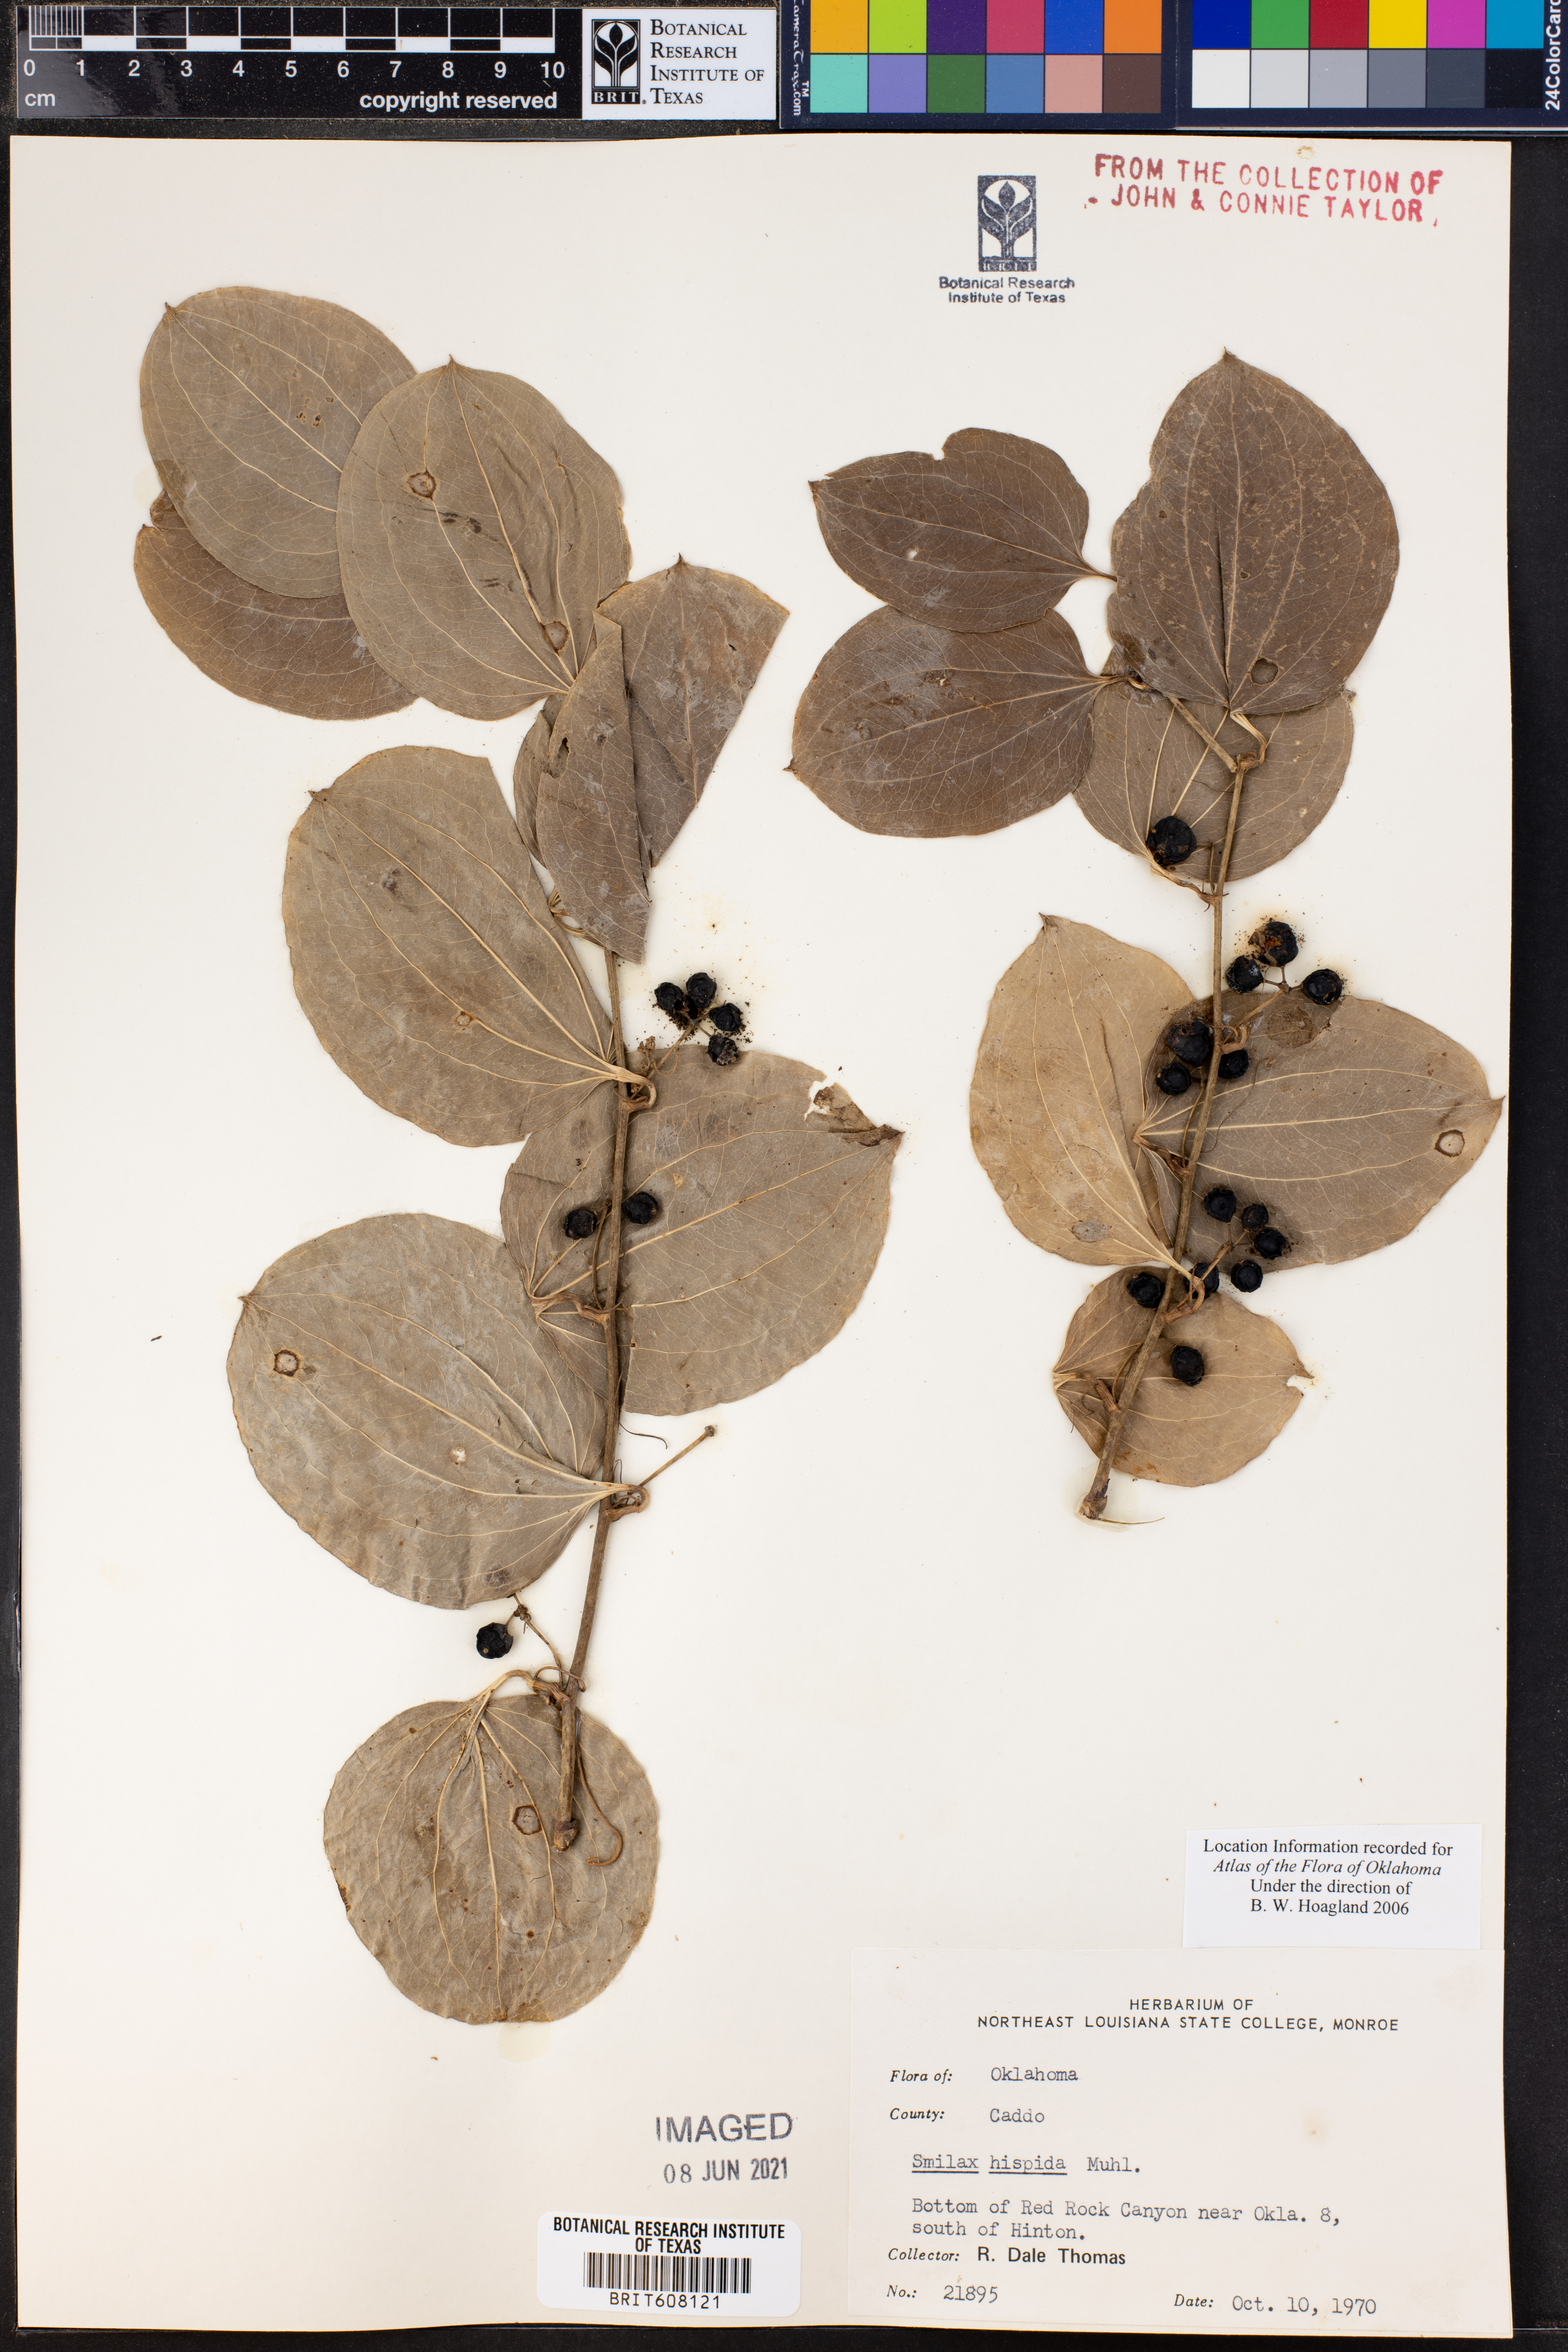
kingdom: Plantae
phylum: Tracheophyta
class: Liliopsida
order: Liliales
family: Smilacaceae
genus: Smilax
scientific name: Smilax tamnoides
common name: Hellfetter
